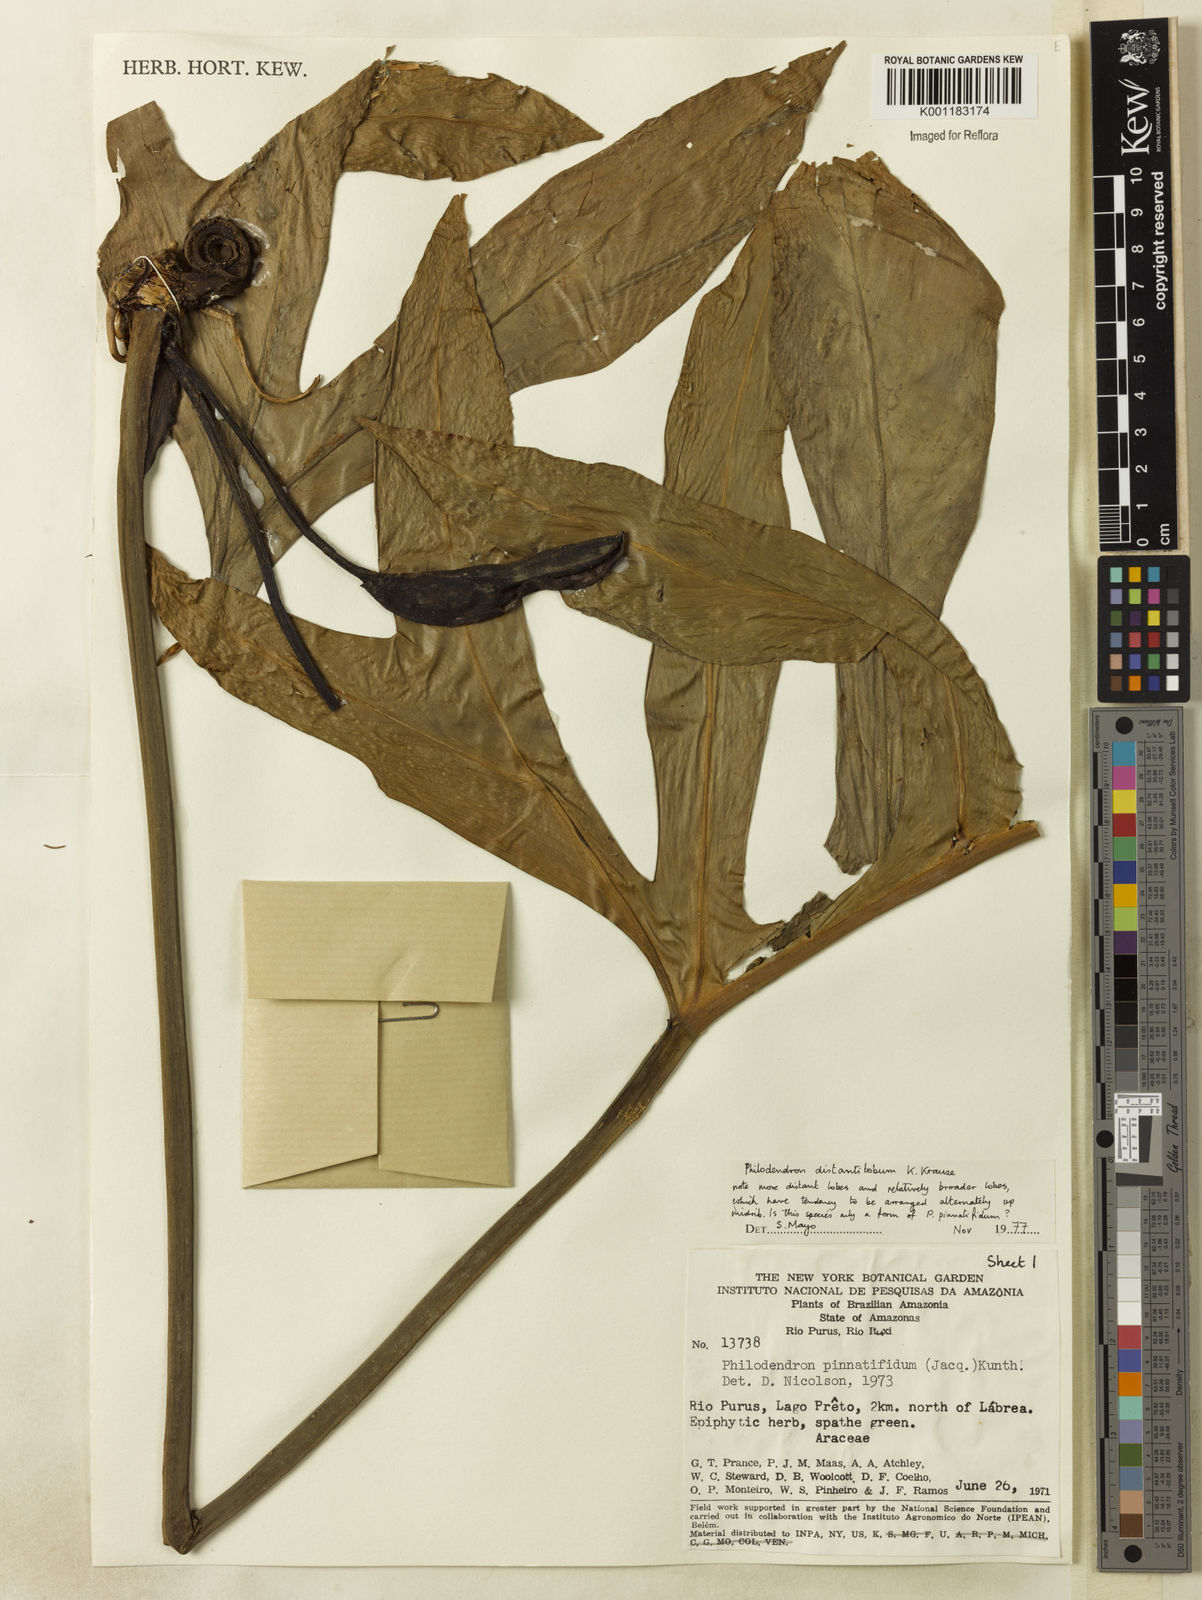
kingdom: Plantae
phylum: Tracheophyta
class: Liliopsida
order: Alismatales
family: Araceae
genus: Philodendron
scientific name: Philodendron distantilobum
